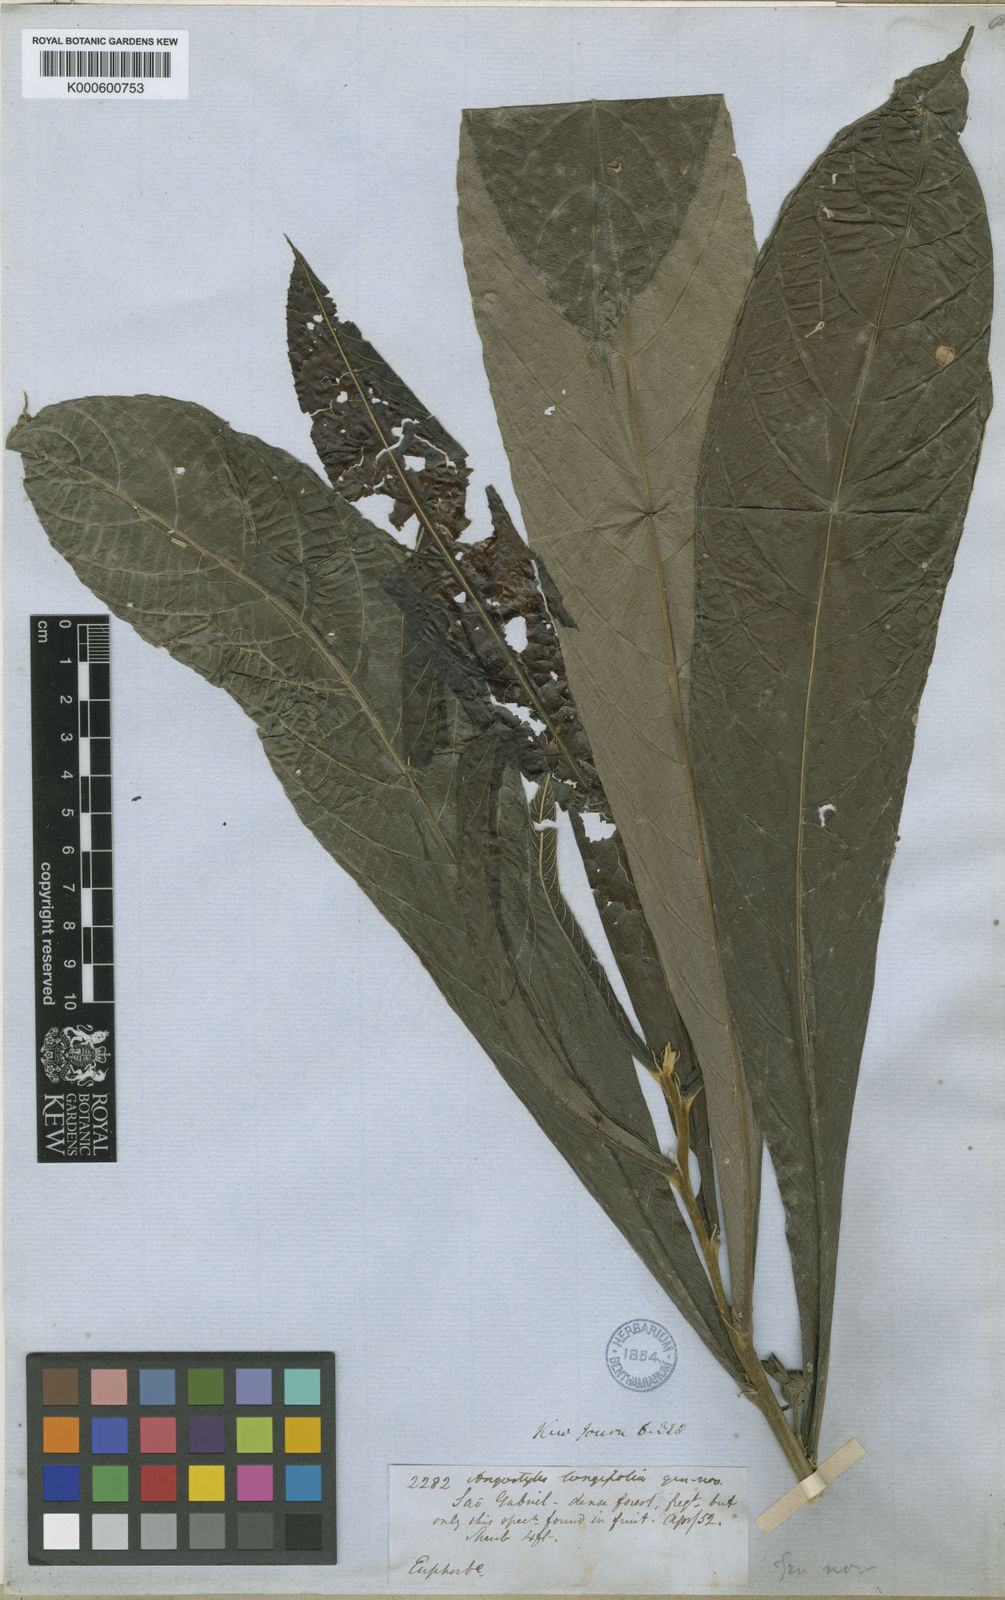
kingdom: Plantae
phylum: Tracheophyta
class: Magnoliopsida
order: Malpighiales
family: Euphorbiaceae
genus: Angostylis
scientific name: Angostylis longifolia
